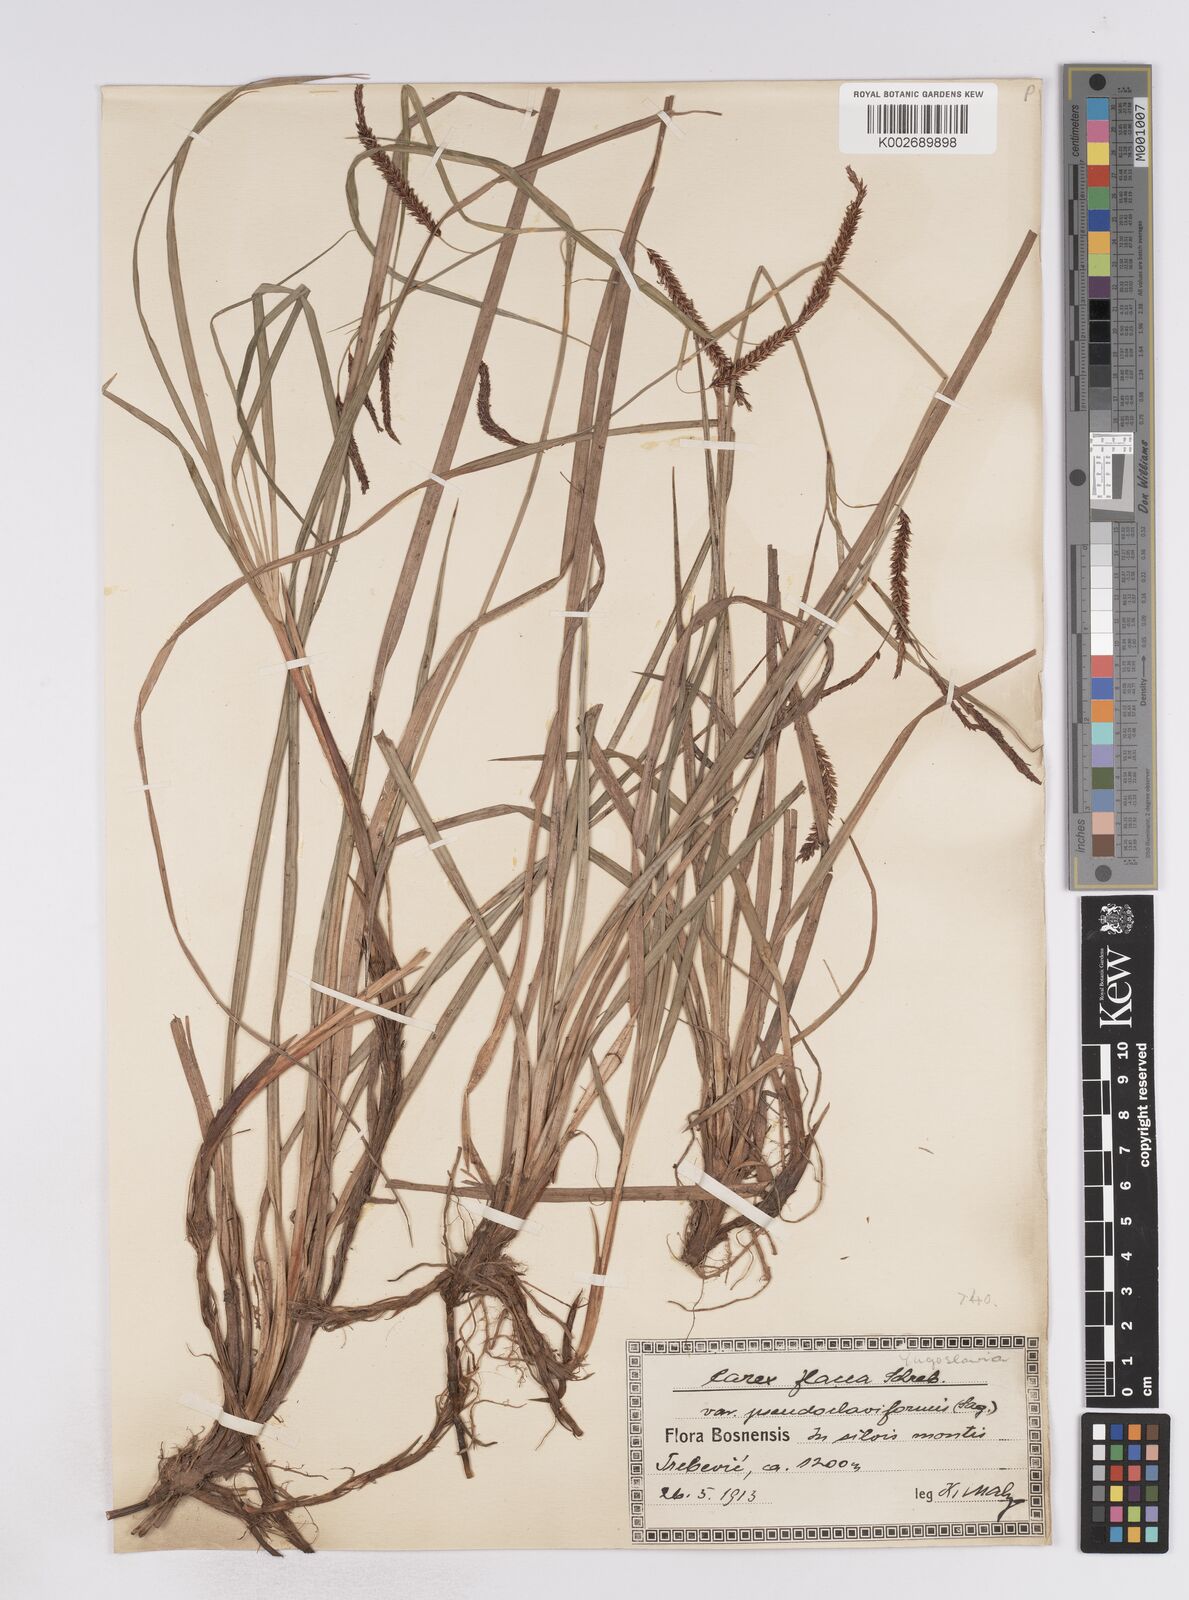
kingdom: Plantae
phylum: Tracheophyta
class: Liliopsida
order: Poales
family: Cyperaceae
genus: Carex
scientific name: Carex flacca
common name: Glaucous sedge
